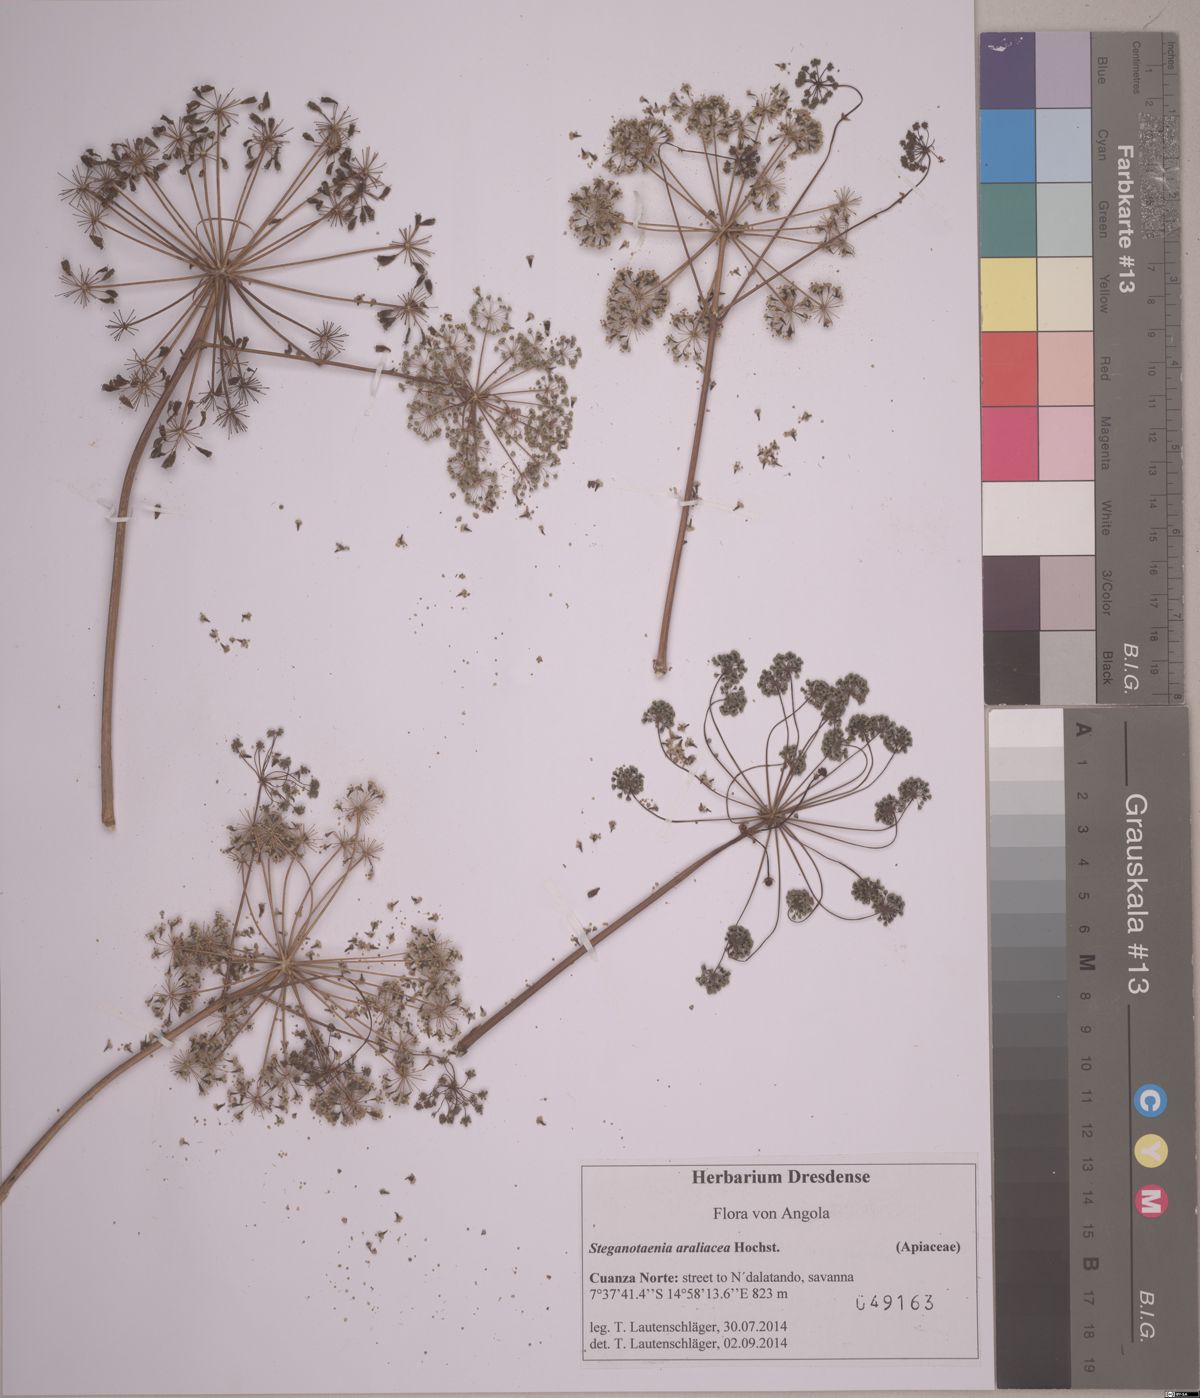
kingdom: Plantae
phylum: Tracheophyta
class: Magnoliopsida
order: Apiales
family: Apiaceae
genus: Steganotaenia
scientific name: Steganotaenia araliacea
